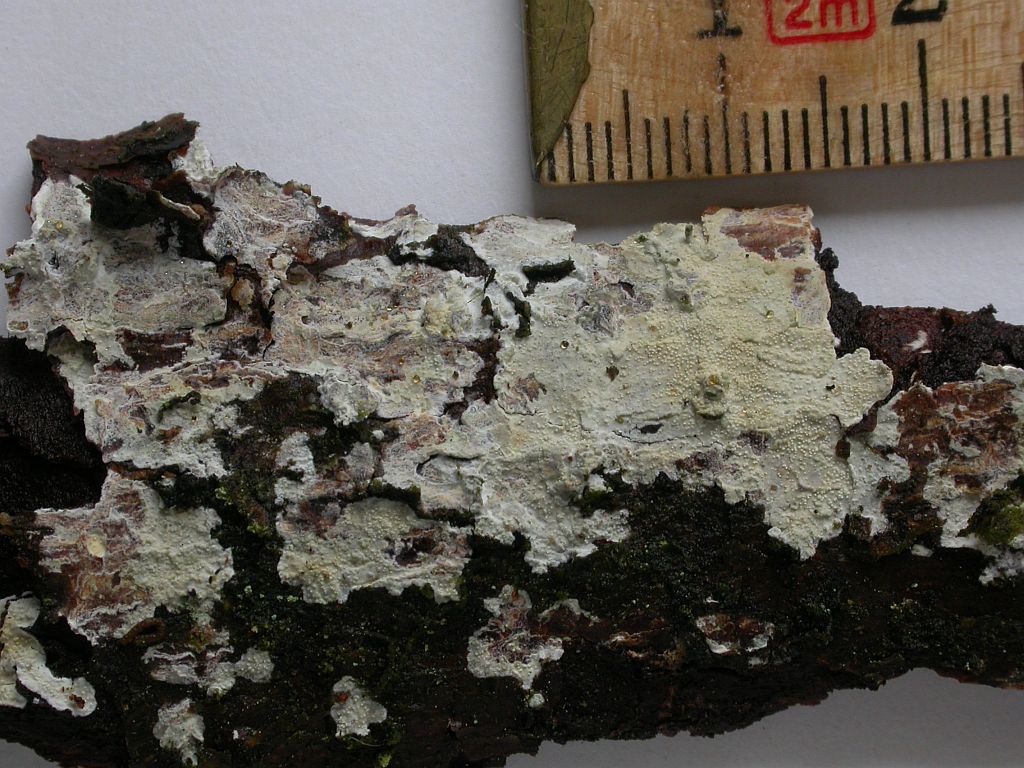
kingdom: Fungi
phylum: Basidiomycota
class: Agaricomycetes
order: Corticiales
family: Corticiaceae
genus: Lyomyces
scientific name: Lyomyces crustosus
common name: vortet hyldehinde
